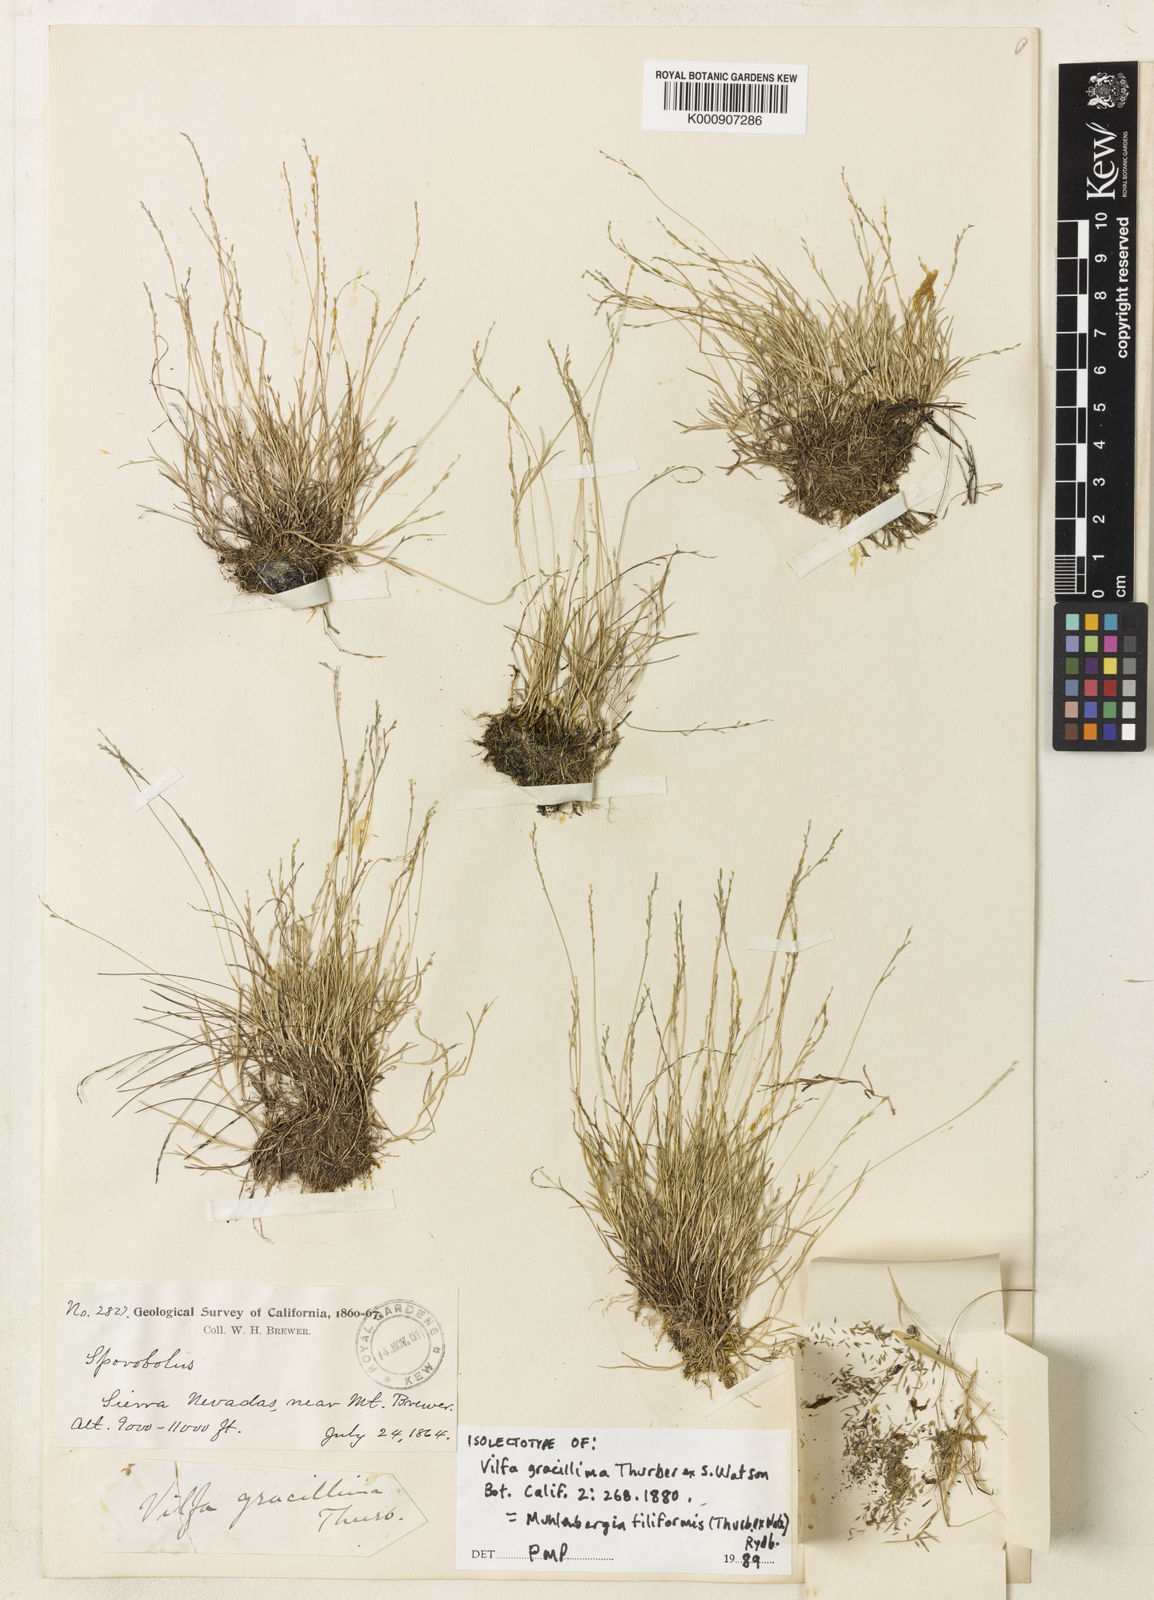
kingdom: Plantae
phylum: Tracheophyta
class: Liliopsida
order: Poales
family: Poaceae
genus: Muhlenbergia
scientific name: Muhlenbergia filiformis
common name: Pull-up muhly
